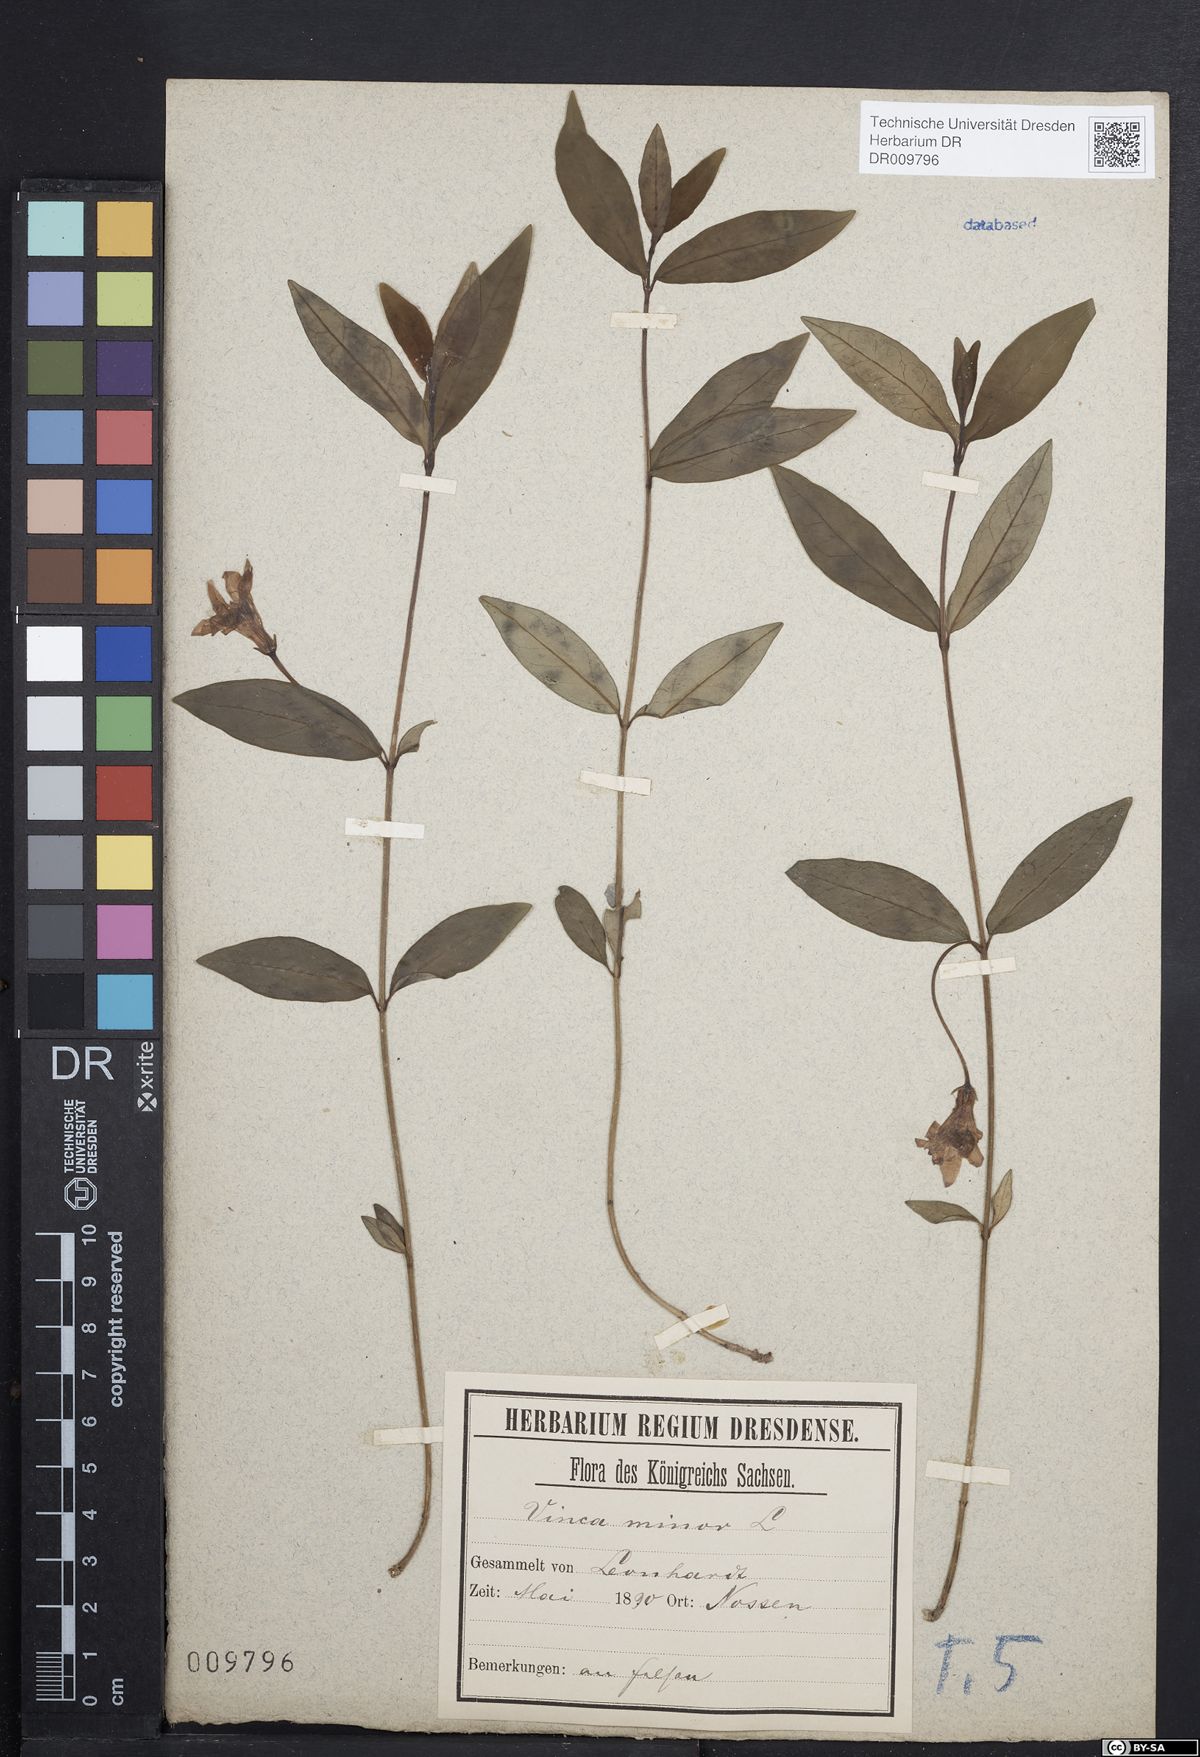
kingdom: Plantae
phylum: Tracheophyta
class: Magnoliopsida
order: Gentianales
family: Apocynaceae
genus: Vinca
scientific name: Vinca minor
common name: Lesser periwinkle
